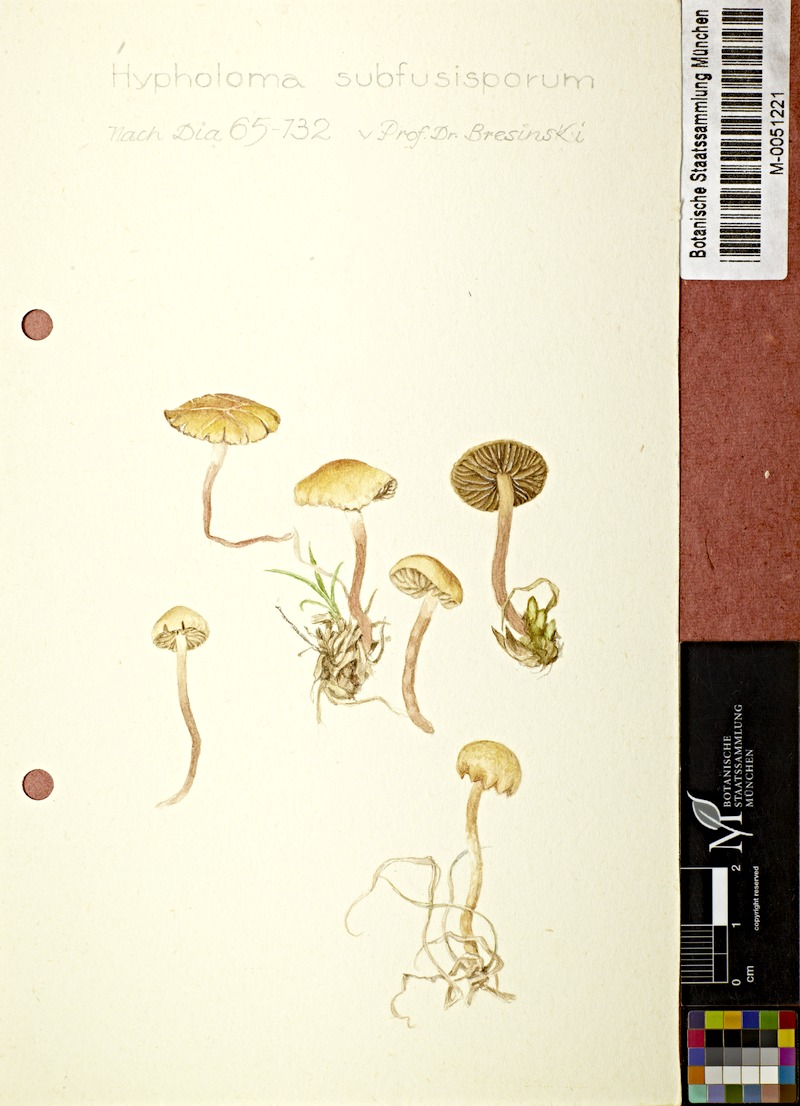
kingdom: Fungi
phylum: Basidiomycota
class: Agaricomycetes
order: Agaricales
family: Strophariaceae
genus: Deconica
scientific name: Deconica subfusispora
